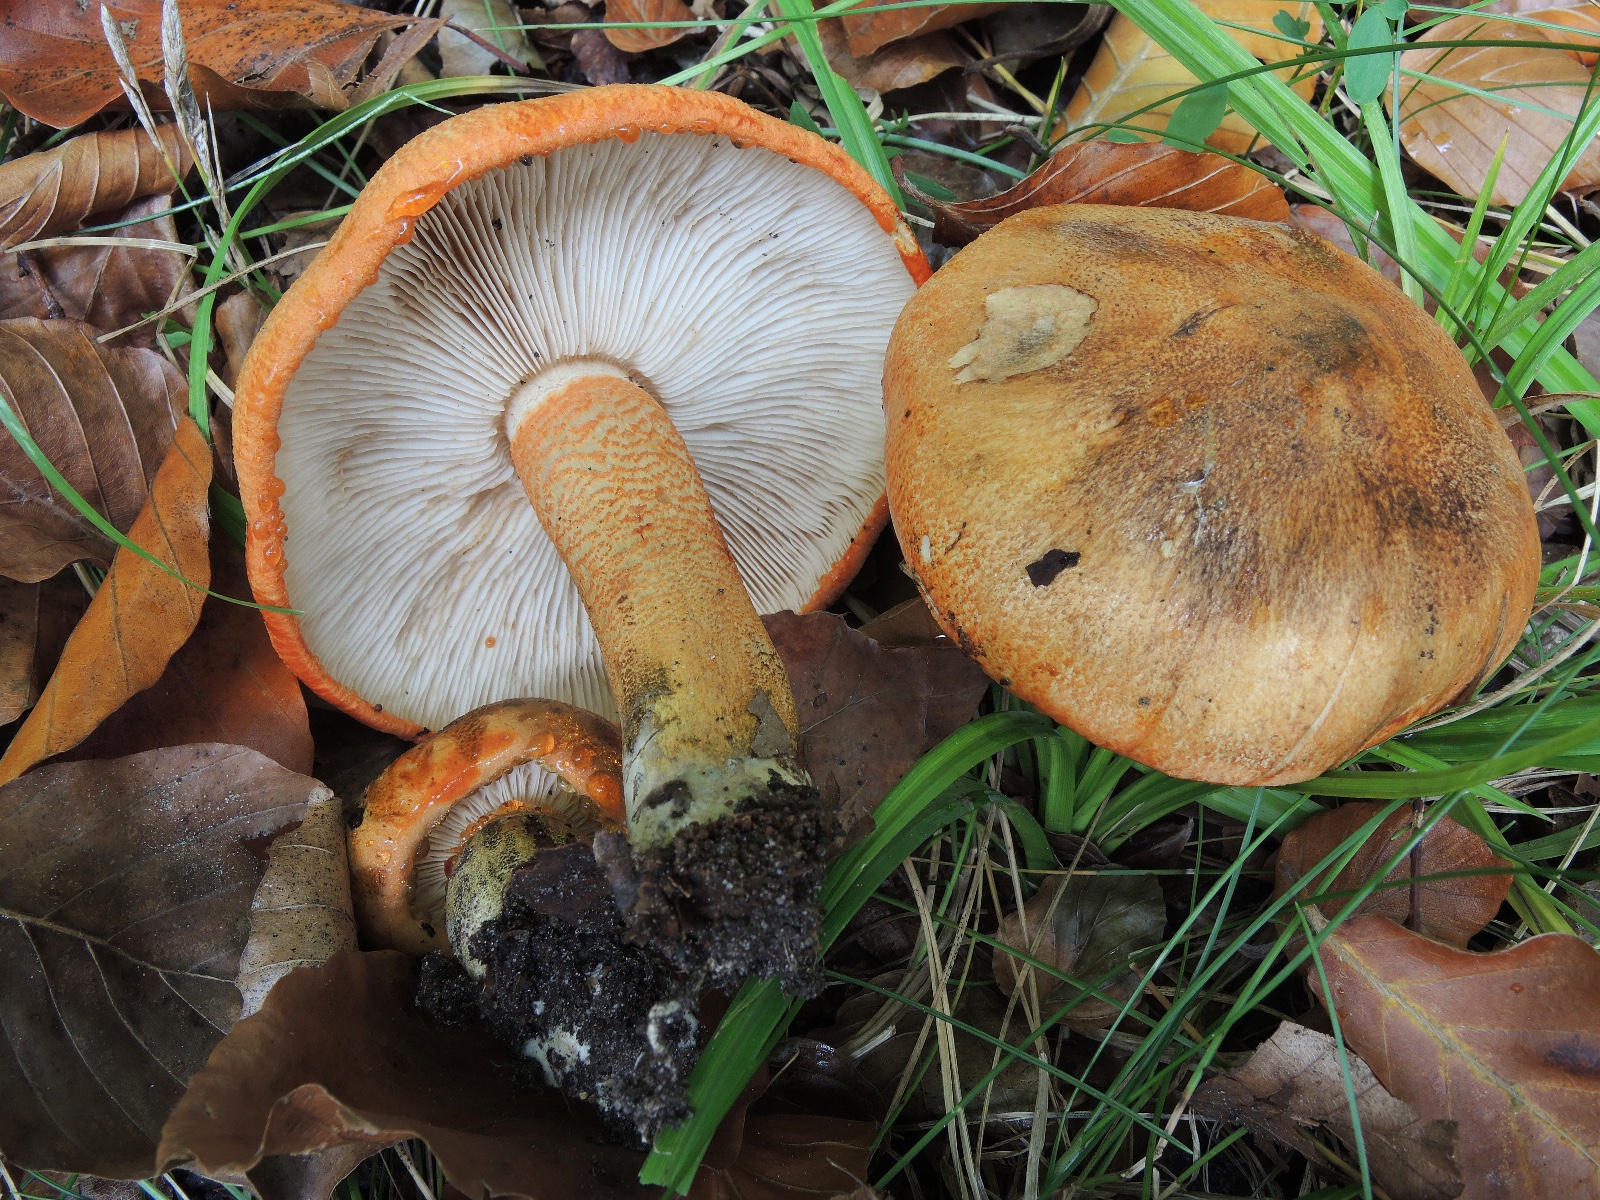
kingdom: Fungi
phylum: Basidiomycota
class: Agaricomycetes
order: Agaricales
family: Tricholomataceae
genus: Tricholoma
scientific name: Tricholoma aurantium
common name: orangegul ridderhat
